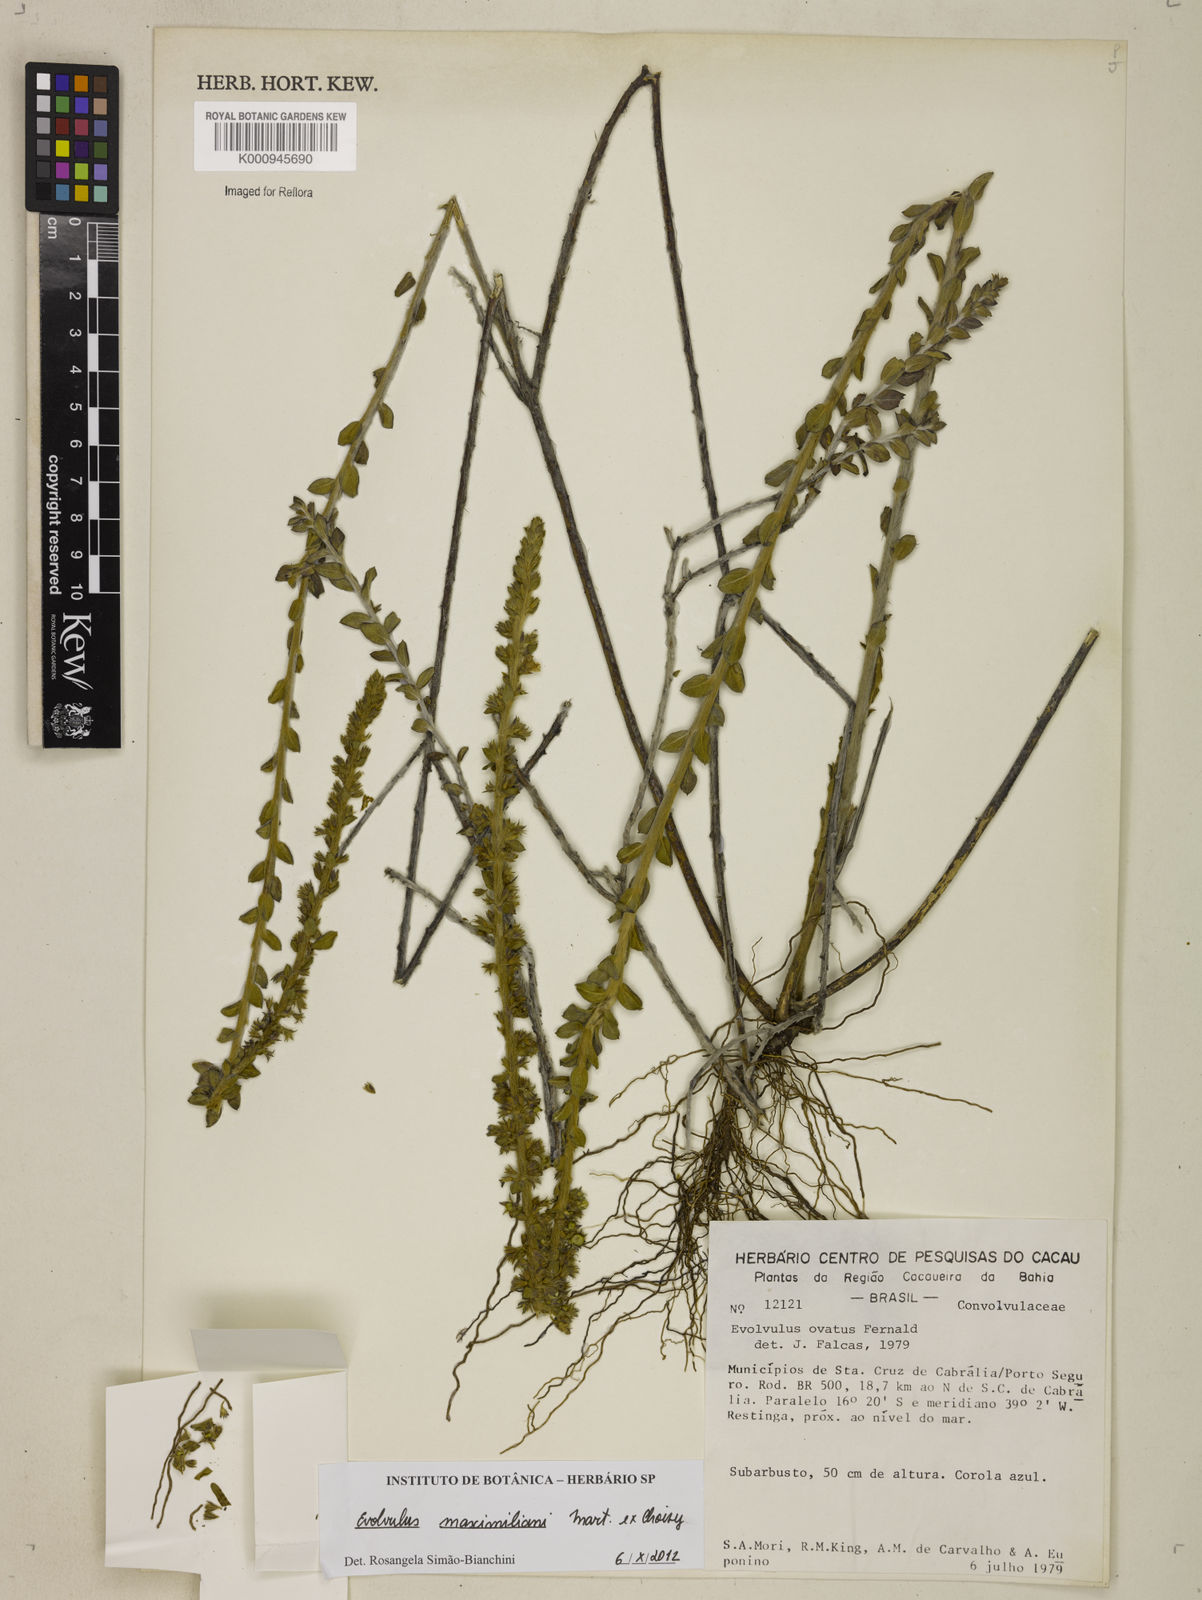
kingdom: Plantae
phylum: Tracheophyta
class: Magnoliopsida
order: Solanales
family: Convolvulaceae
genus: Evolvulus
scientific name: Evolvulus maximiliani
